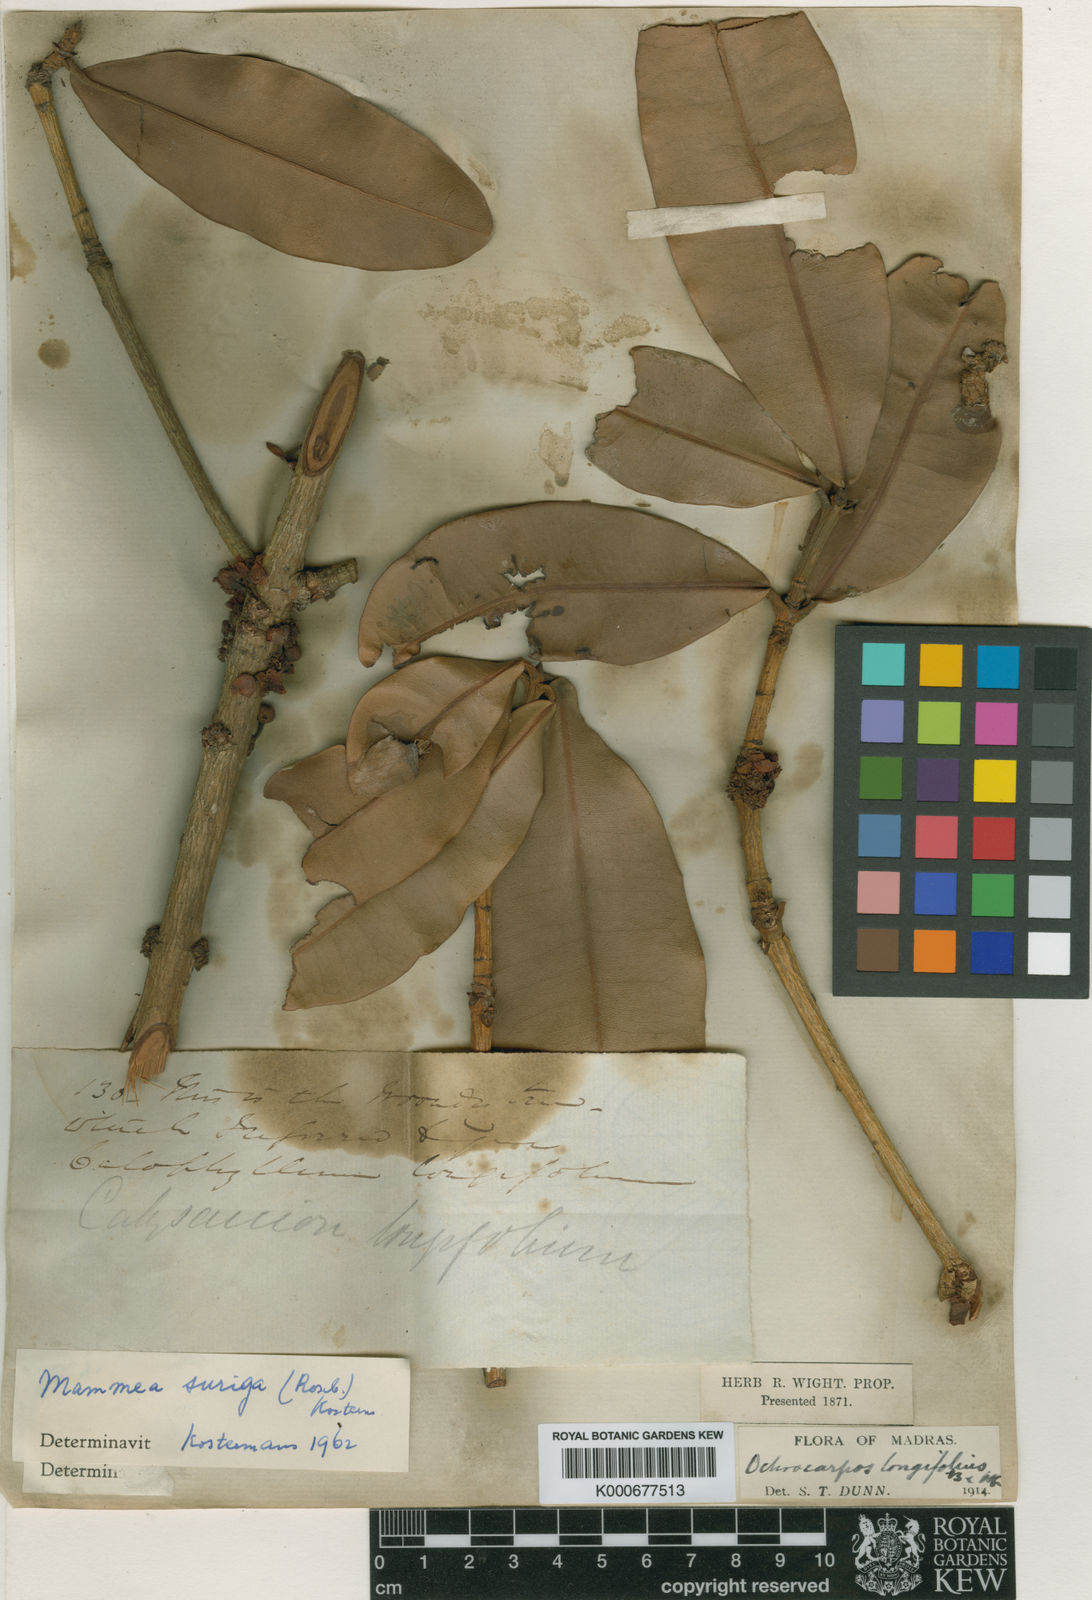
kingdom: Plantae
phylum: Tracheophyta
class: Magnoliopsida
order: Malpighiales
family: Calophyllaceae
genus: Mammea
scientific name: Mammea nervosa
